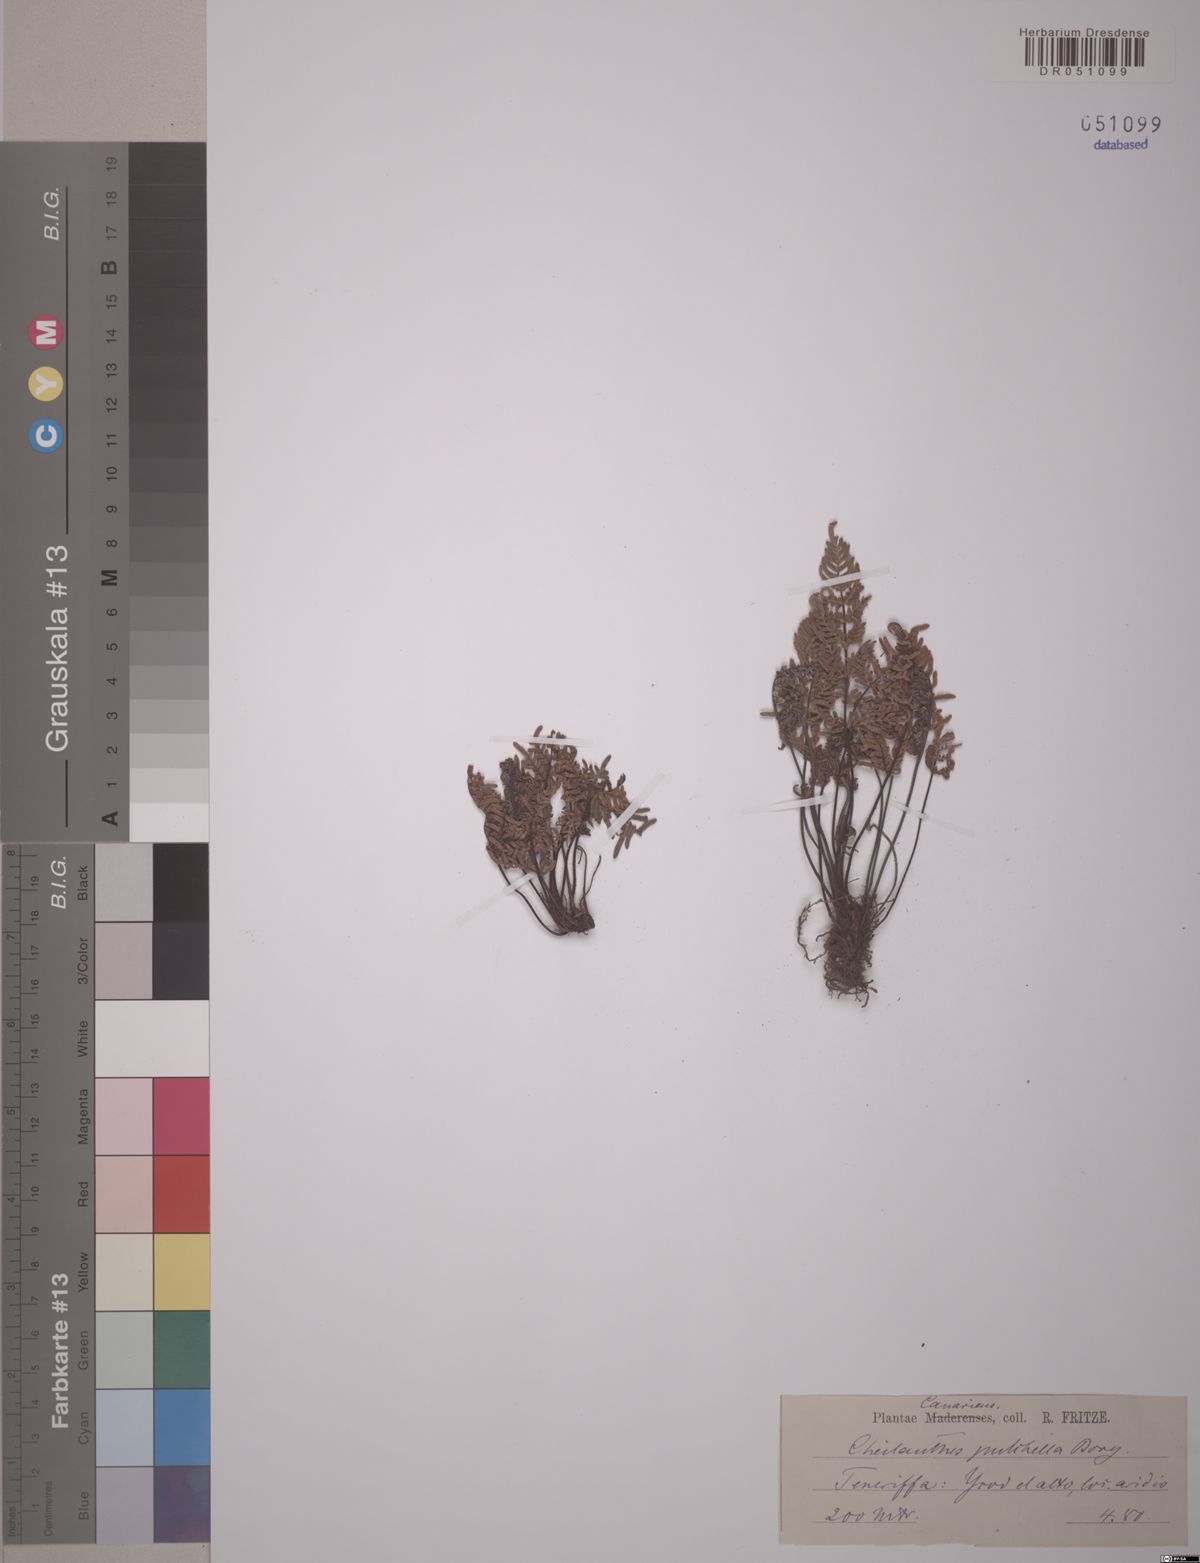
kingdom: Plantae
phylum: Tracheophyta
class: Polypodiopsida
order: Polypodiales
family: Pteridaceae
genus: Cheilanthes
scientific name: Cheilanthes pulchella
